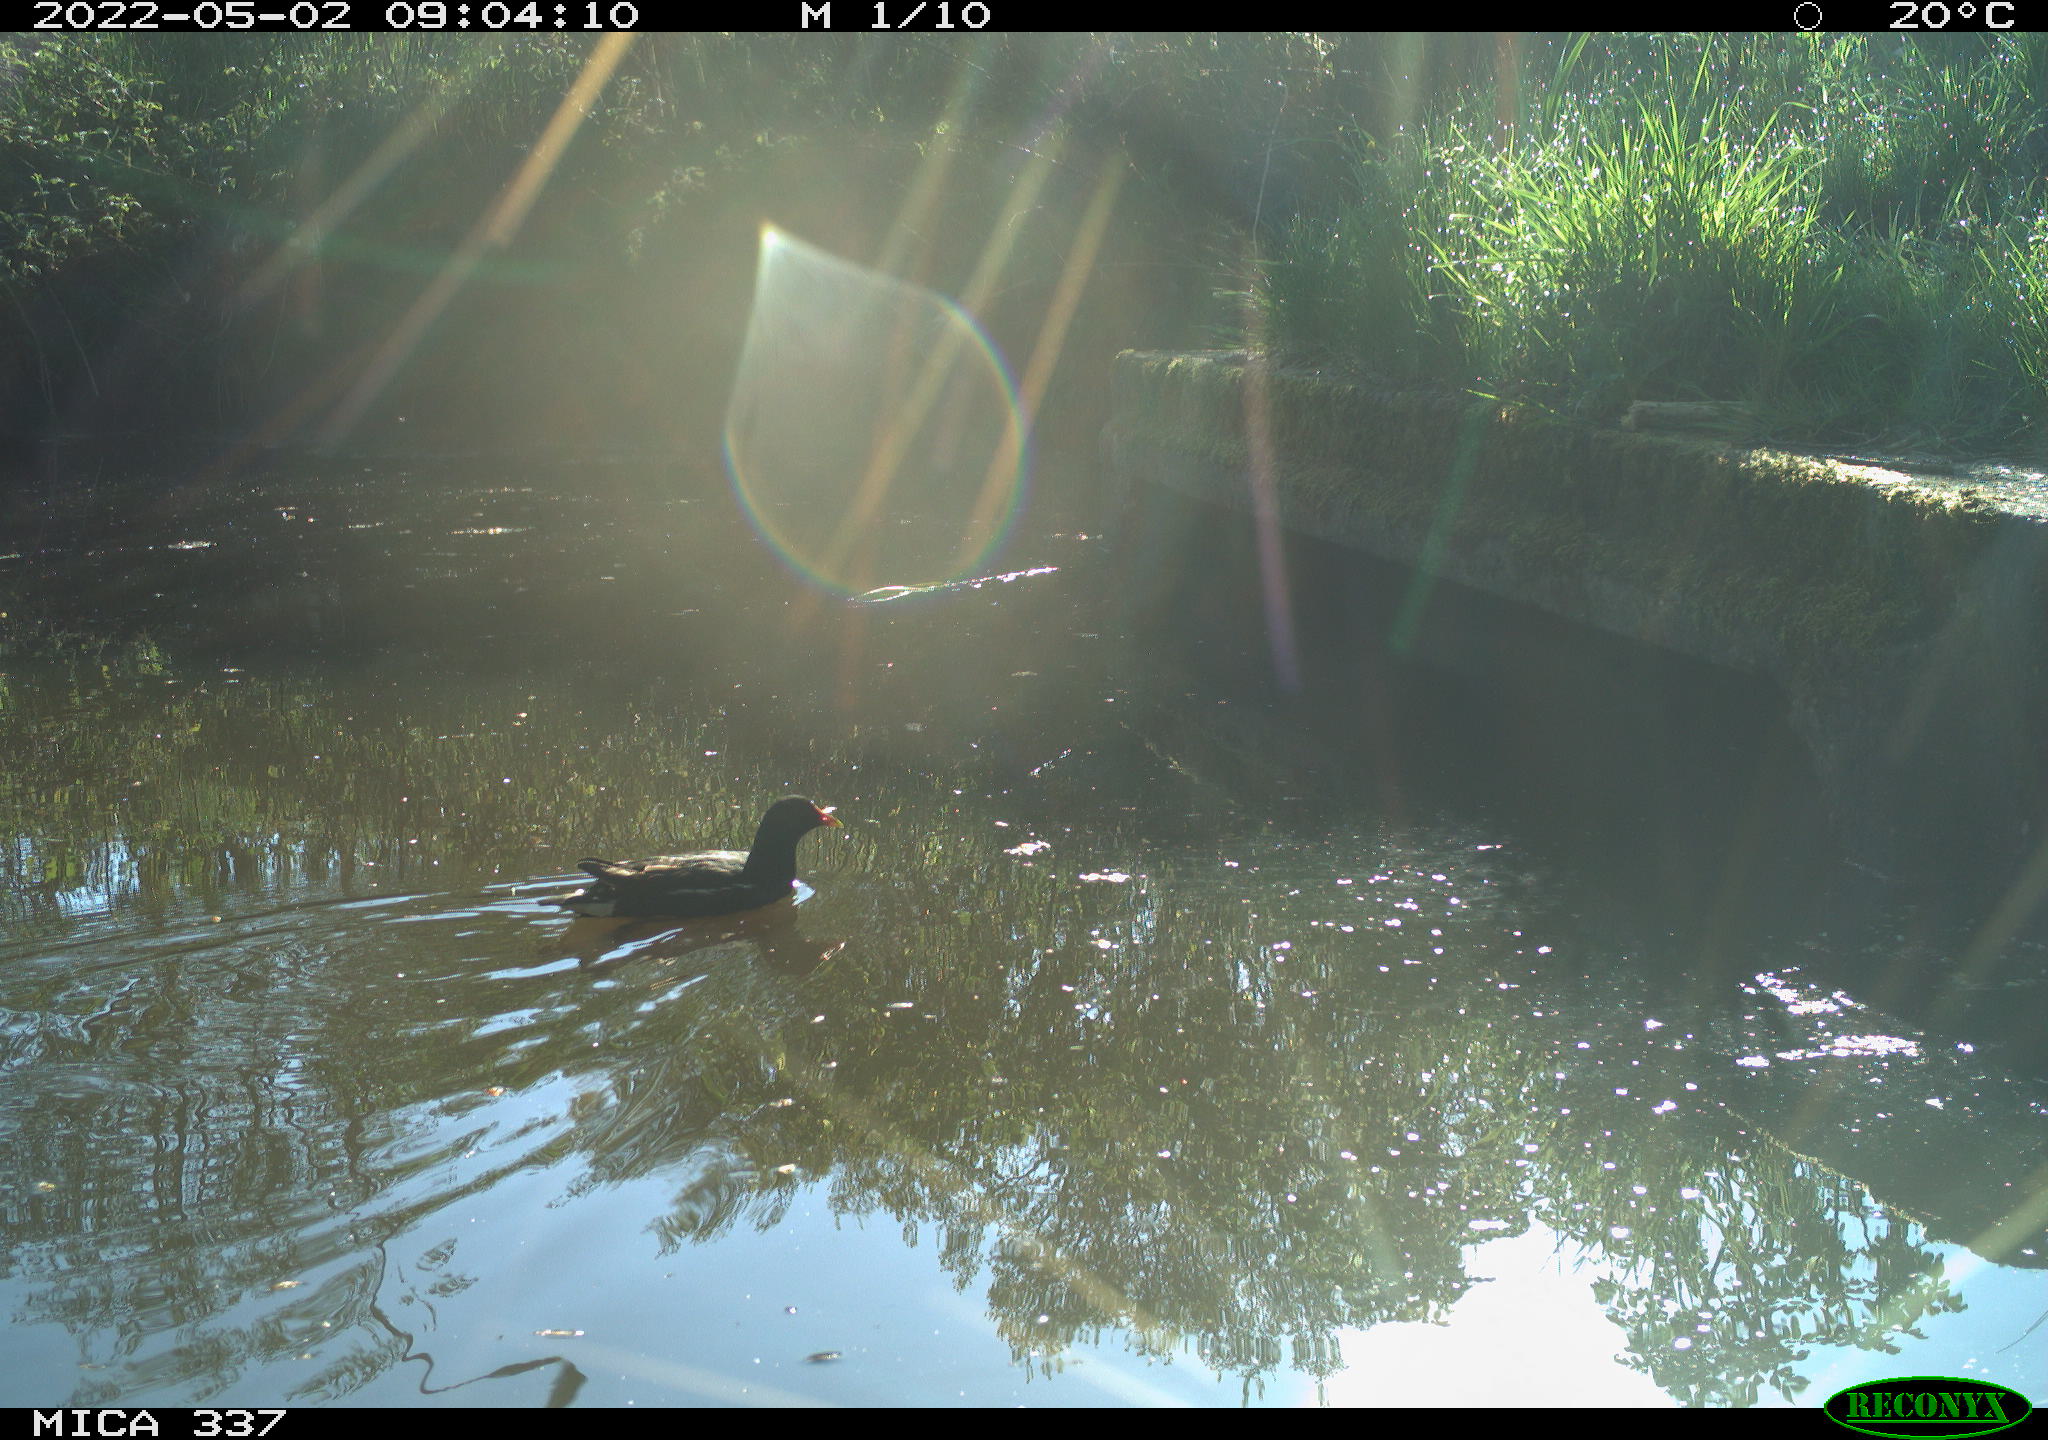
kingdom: Animalia
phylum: Chordata
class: Aves
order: Gruiformes
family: Rallidae
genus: Gallinula
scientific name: Gallinula chloropus
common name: Common moorhen
